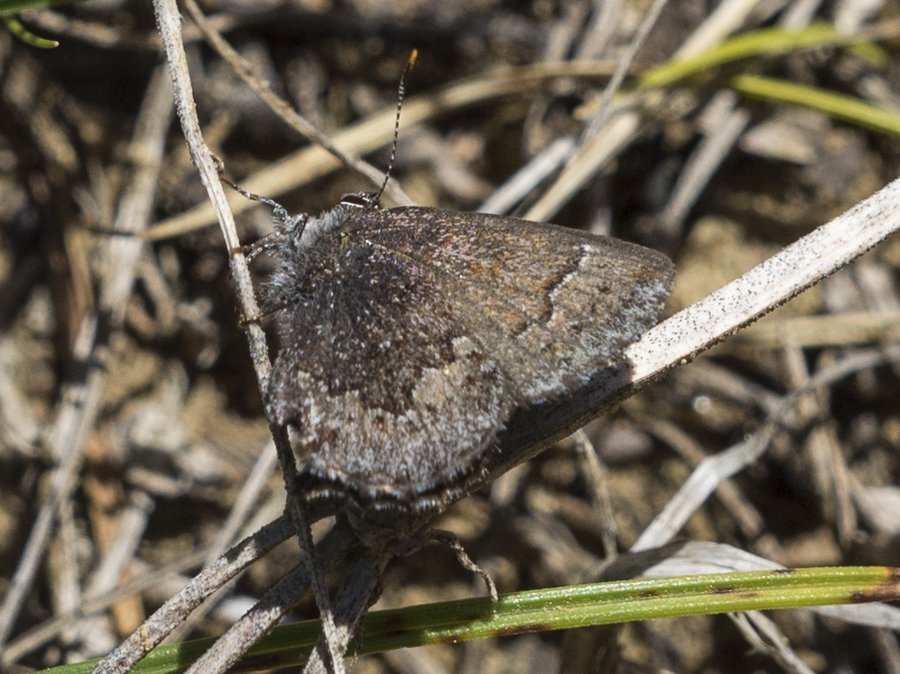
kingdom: Animalia
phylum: Arthropoda
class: Insecta
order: Lepidoptera
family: Lycaenidae
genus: Callophrys
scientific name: Callophrys polios
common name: Hoary Elfin
